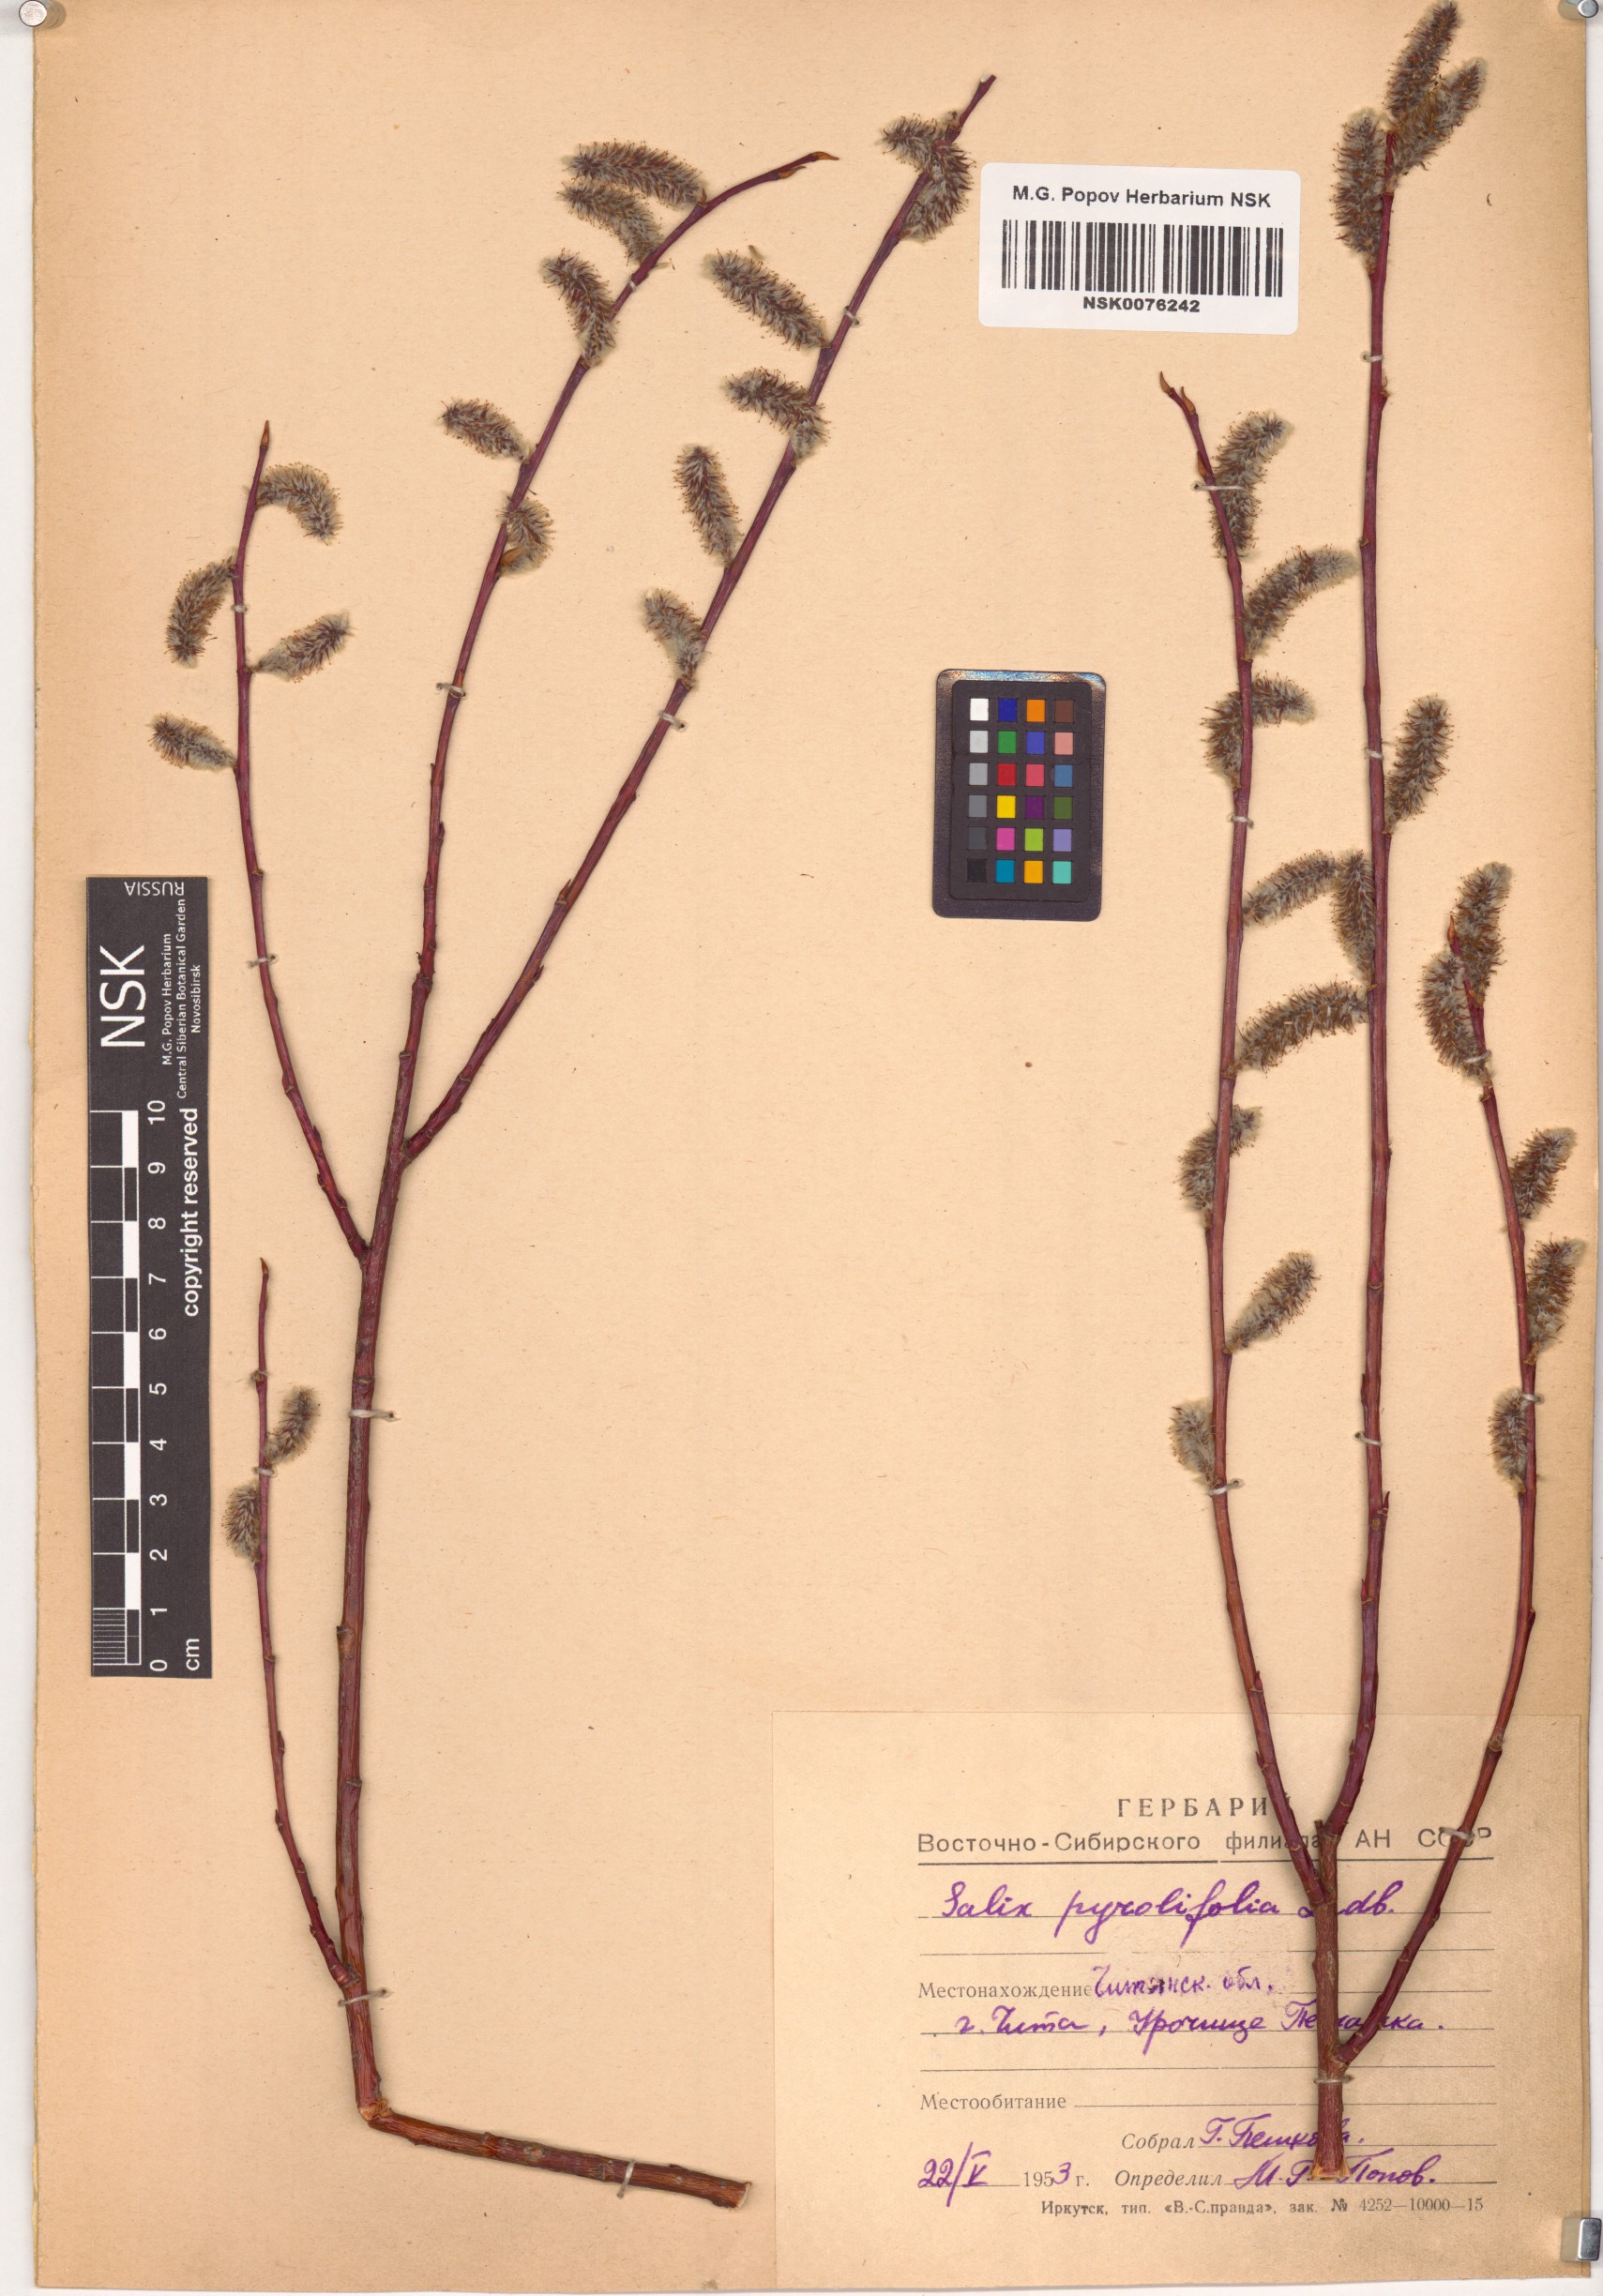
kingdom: Plantae
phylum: Tracheophyta
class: Magnoliopsida
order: Malpighiales
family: Salicaceae
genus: Salix
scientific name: Salix pyrolifolia
